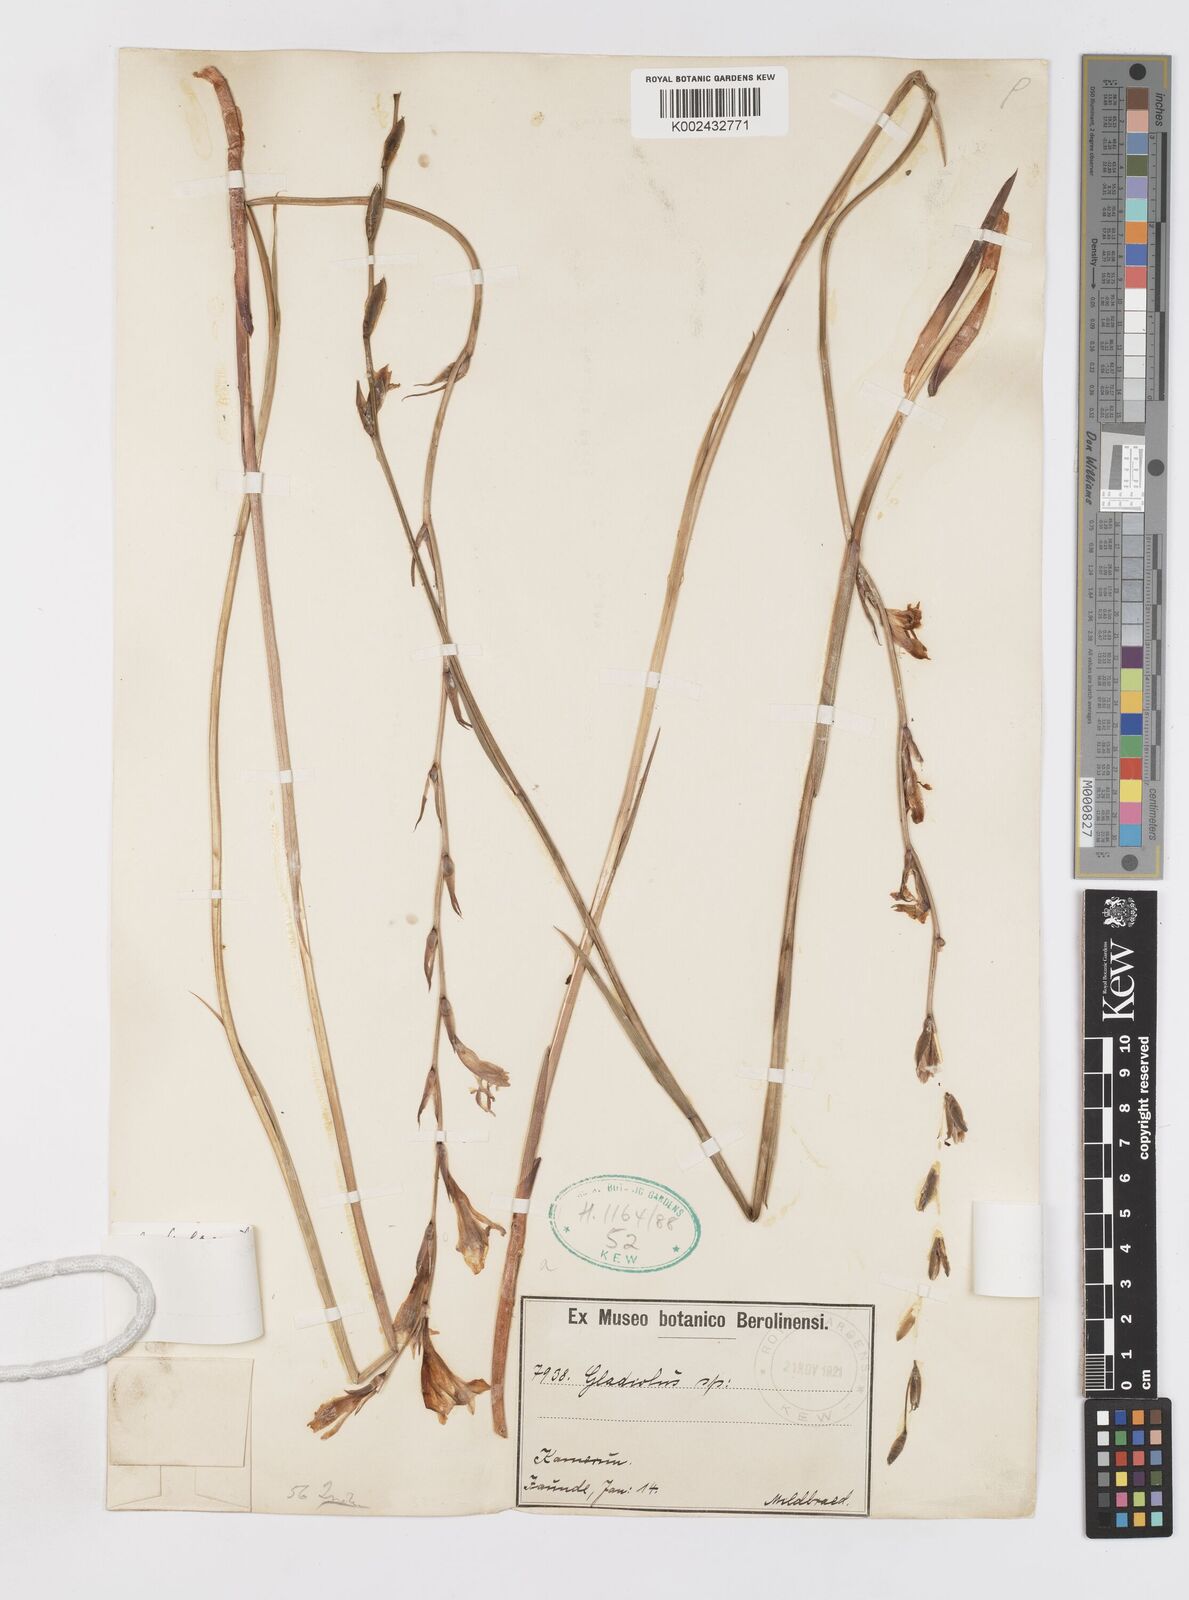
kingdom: Plantae
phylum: Tracheophyta
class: Liliopsida
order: Asparagales
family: Iridaceae
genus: Gladiolus
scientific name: Gladiolus unguiculatus
